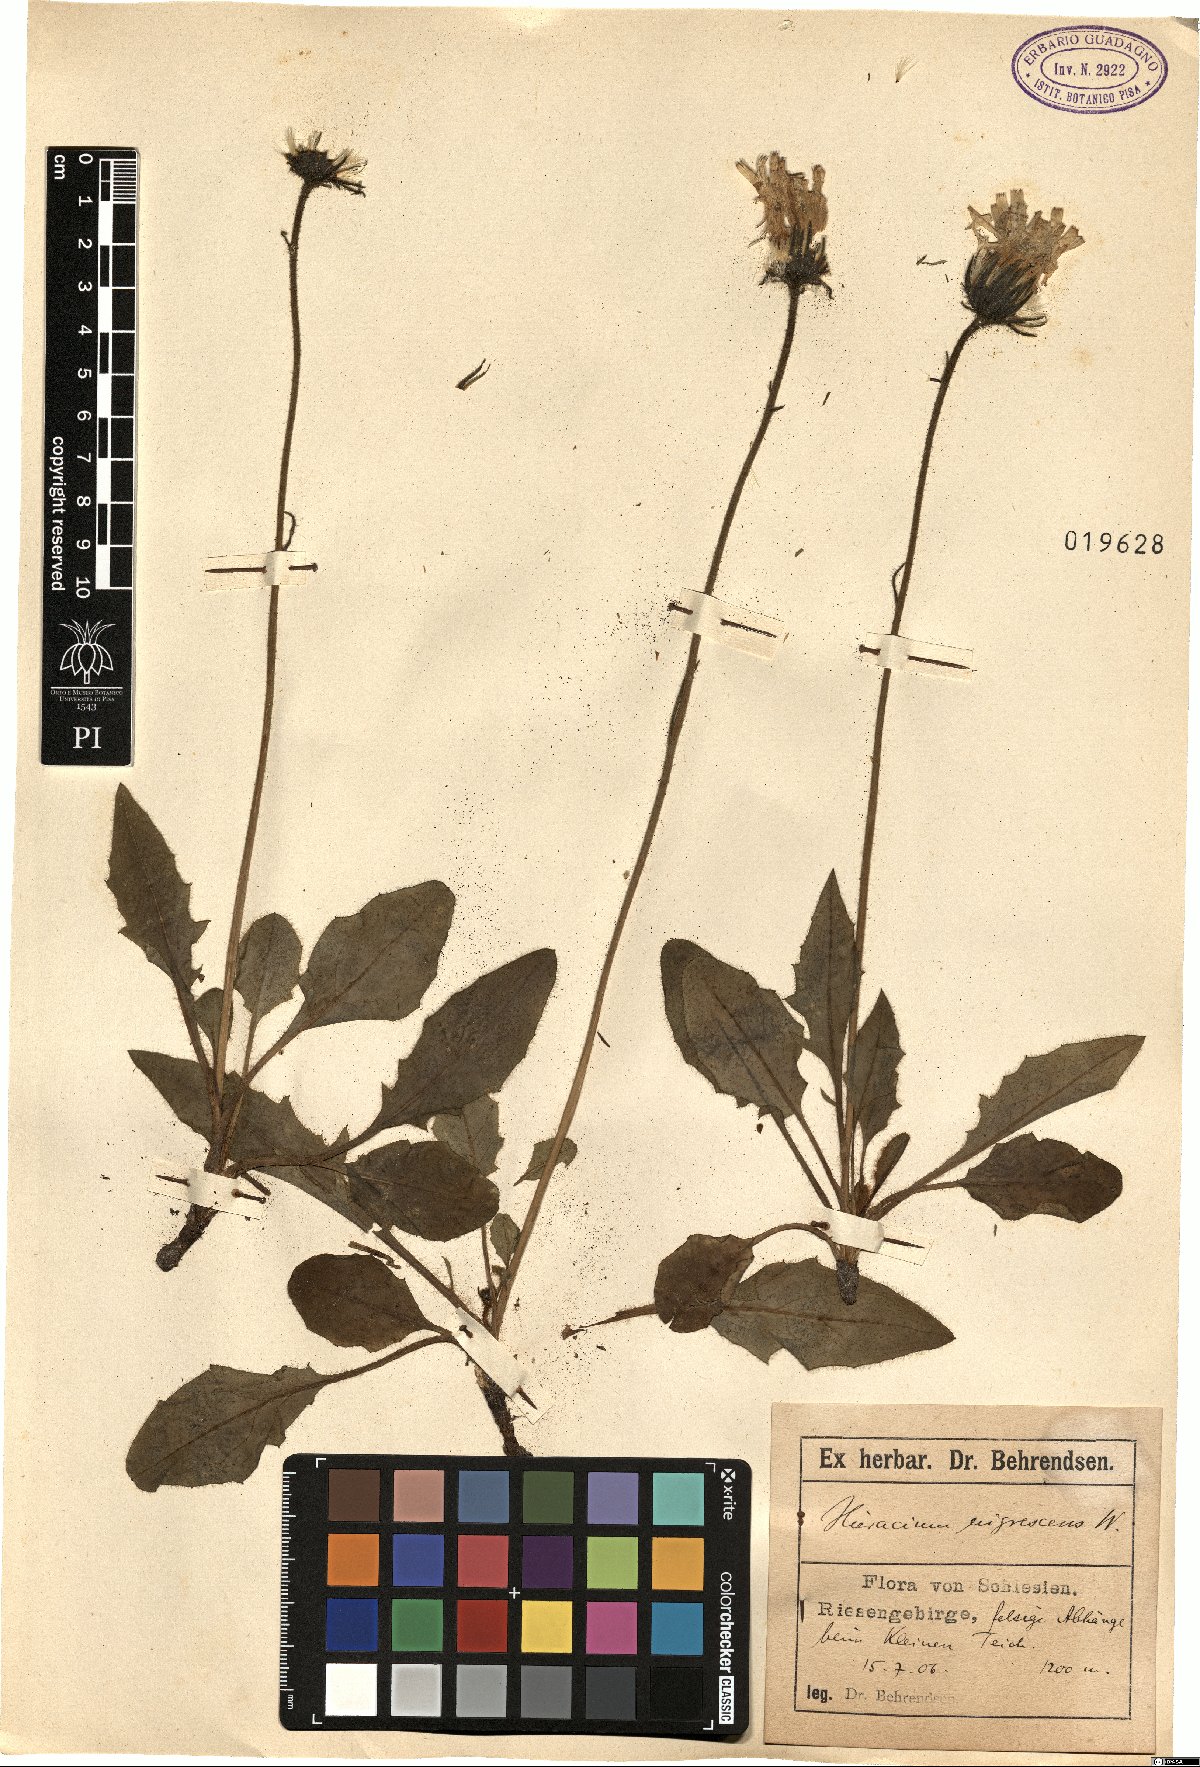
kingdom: Plantae
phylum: Tracheophyta
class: Magnoliopsida
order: Asterales
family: Asteraceae
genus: Hieracium
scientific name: Hieracium nigrescens
